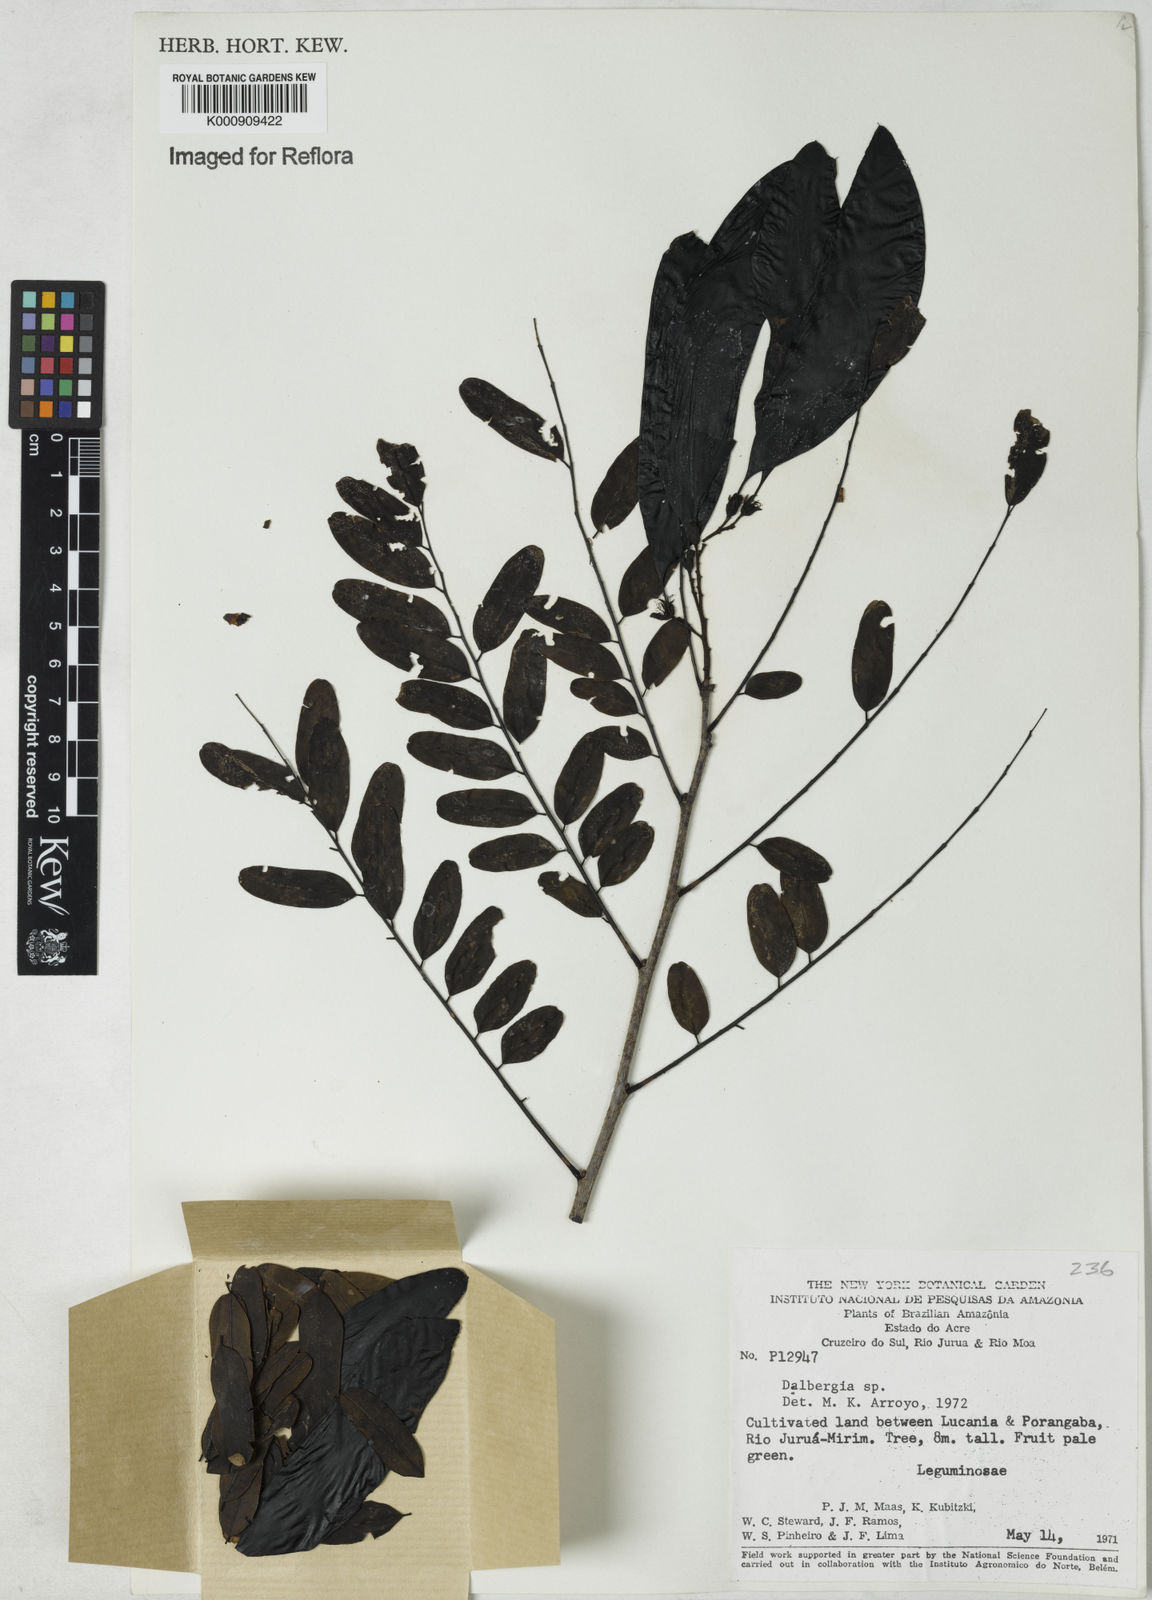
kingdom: Plantae
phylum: Tracheophyta
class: Magnoliopsida
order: Fabales
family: Fabaceae
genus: Dalbergia
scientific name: Dalbergia
